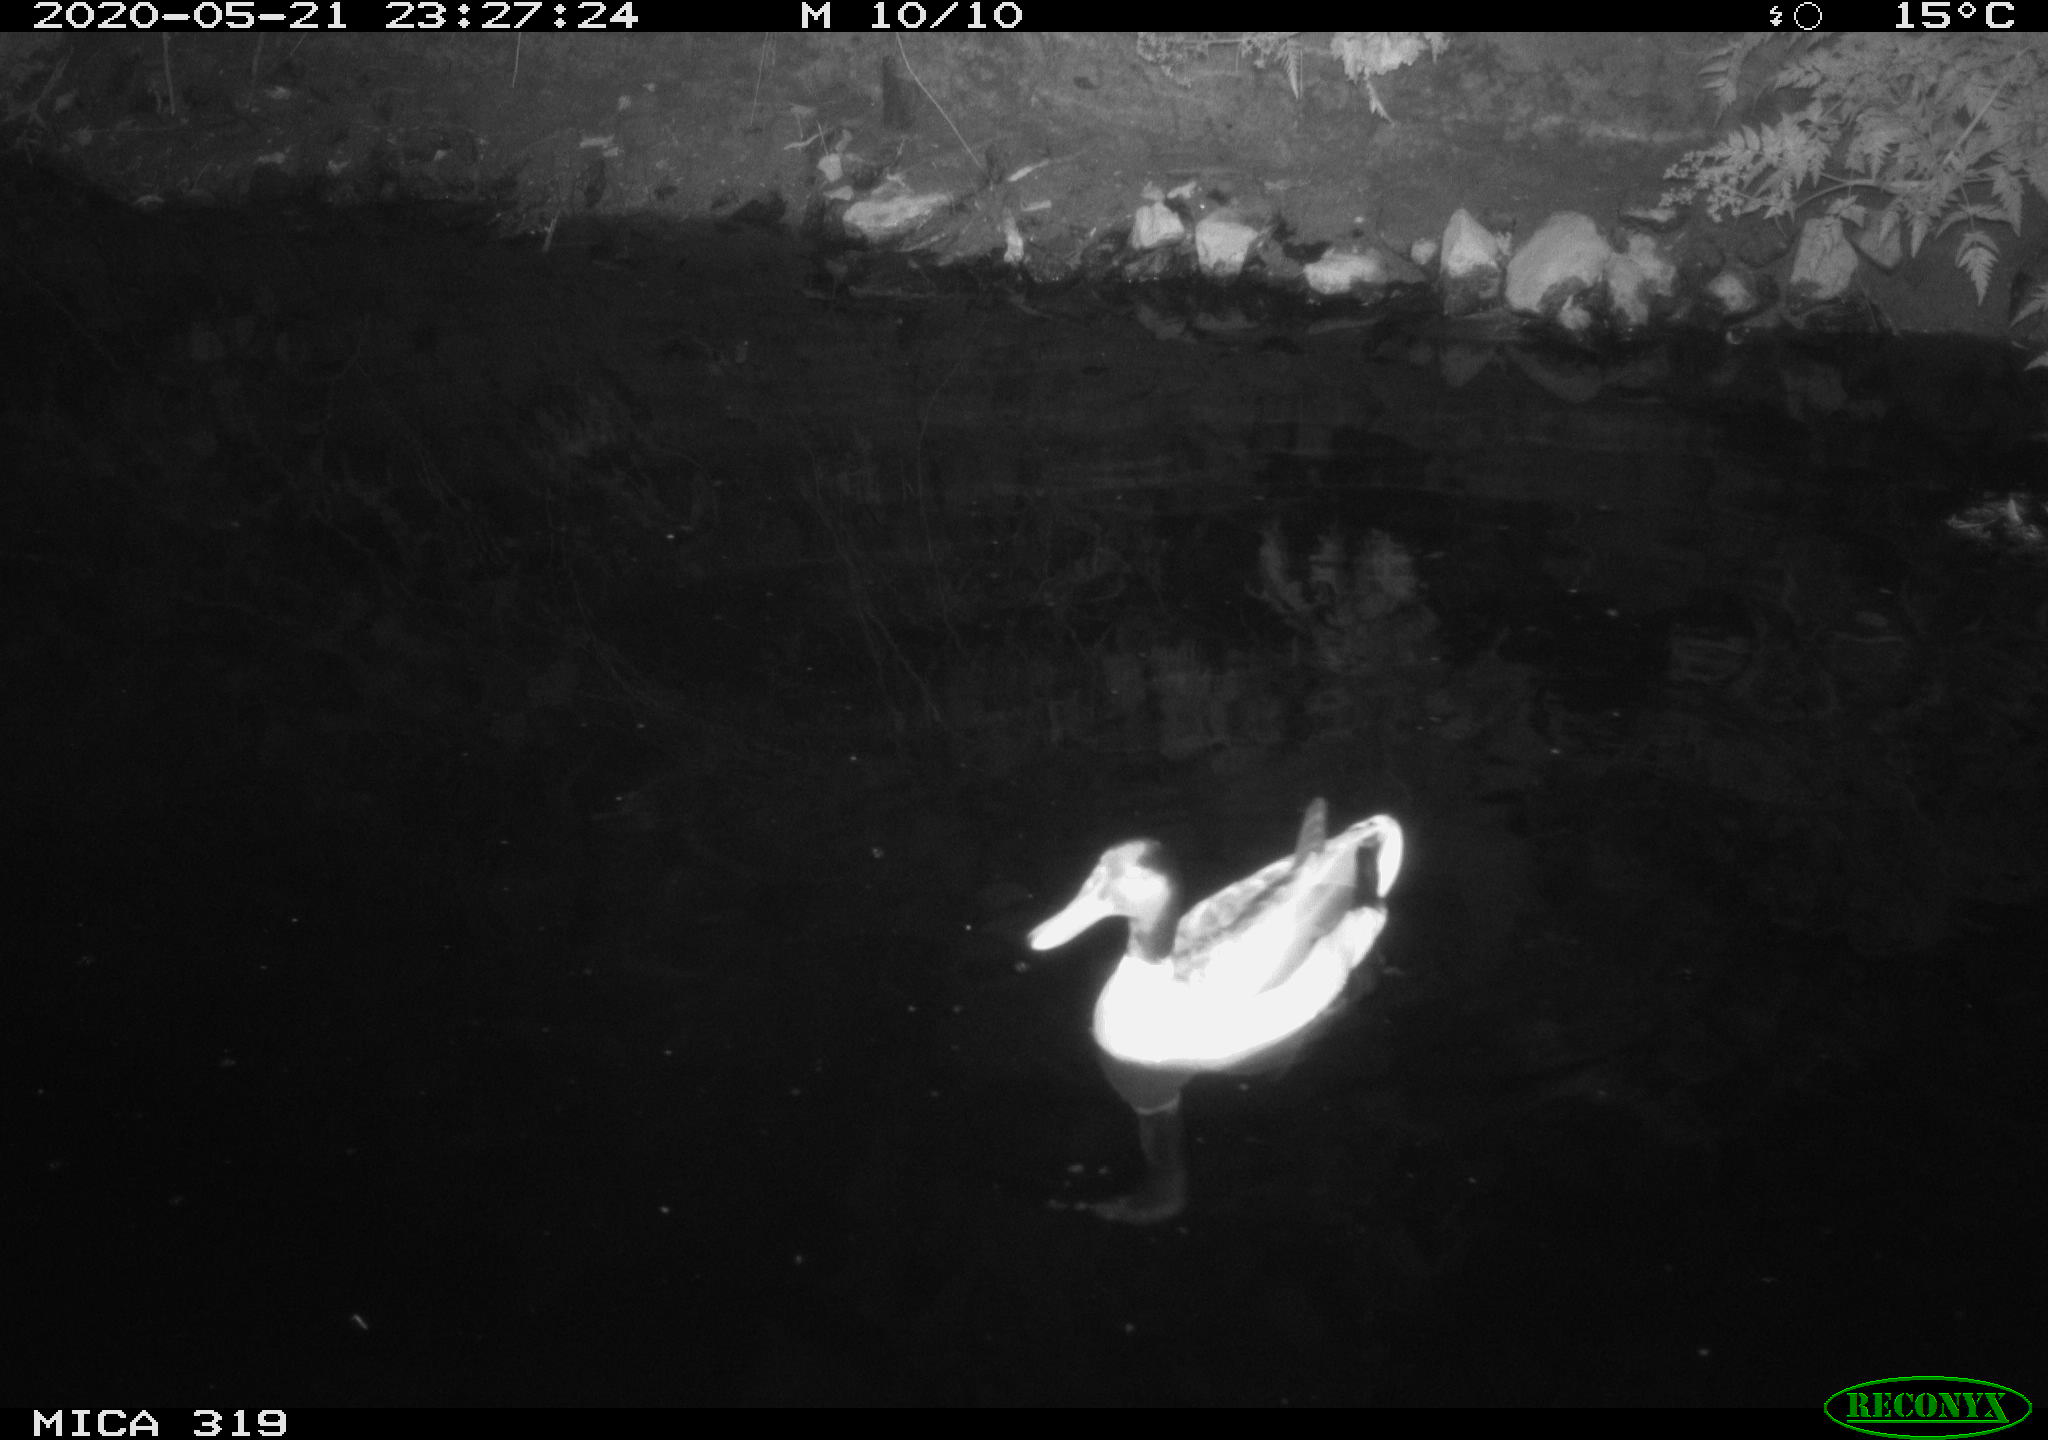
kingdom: Animalia
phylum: Chordata
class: Aves
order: Anseriformes
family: Anatidae
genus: Anas
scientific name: Anas platyrhynchos
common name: Mallard
